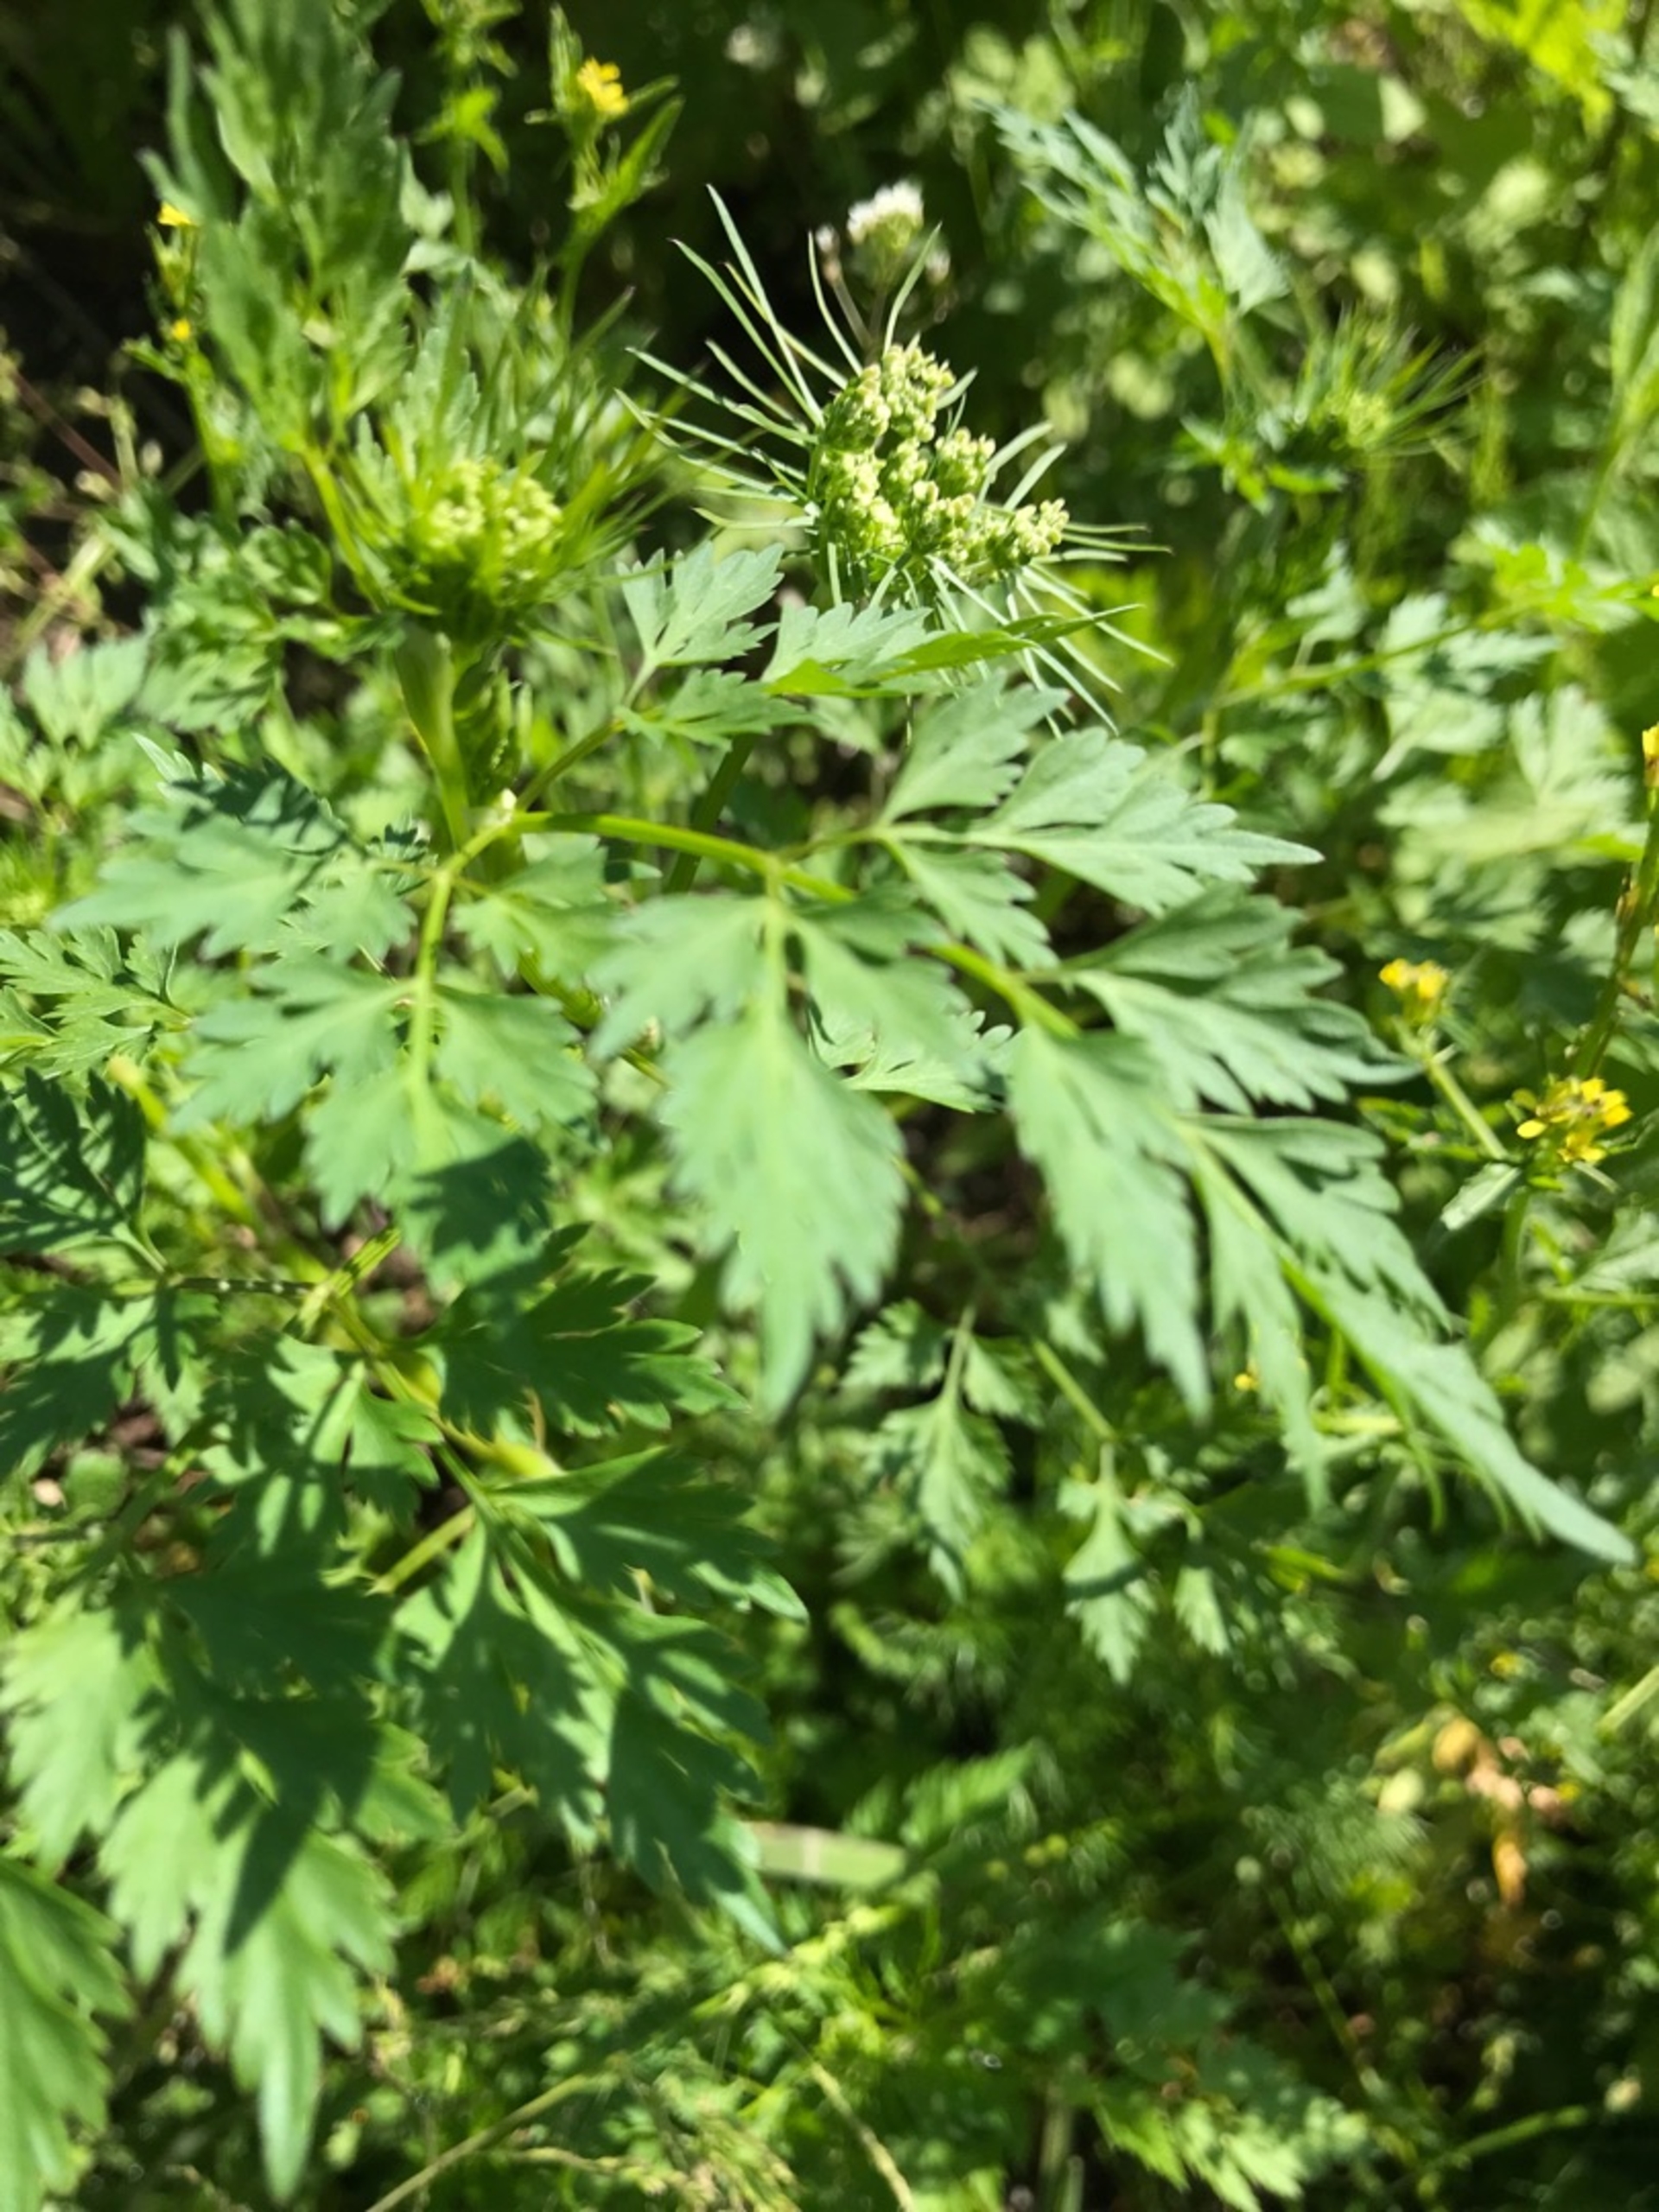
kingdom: Plantae
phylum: Tracheophyta
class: Magnoliopsida
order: Apiales
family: Apiaceae
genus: Aethusa
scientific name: Aethusa cynapium
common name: Hundepersille
